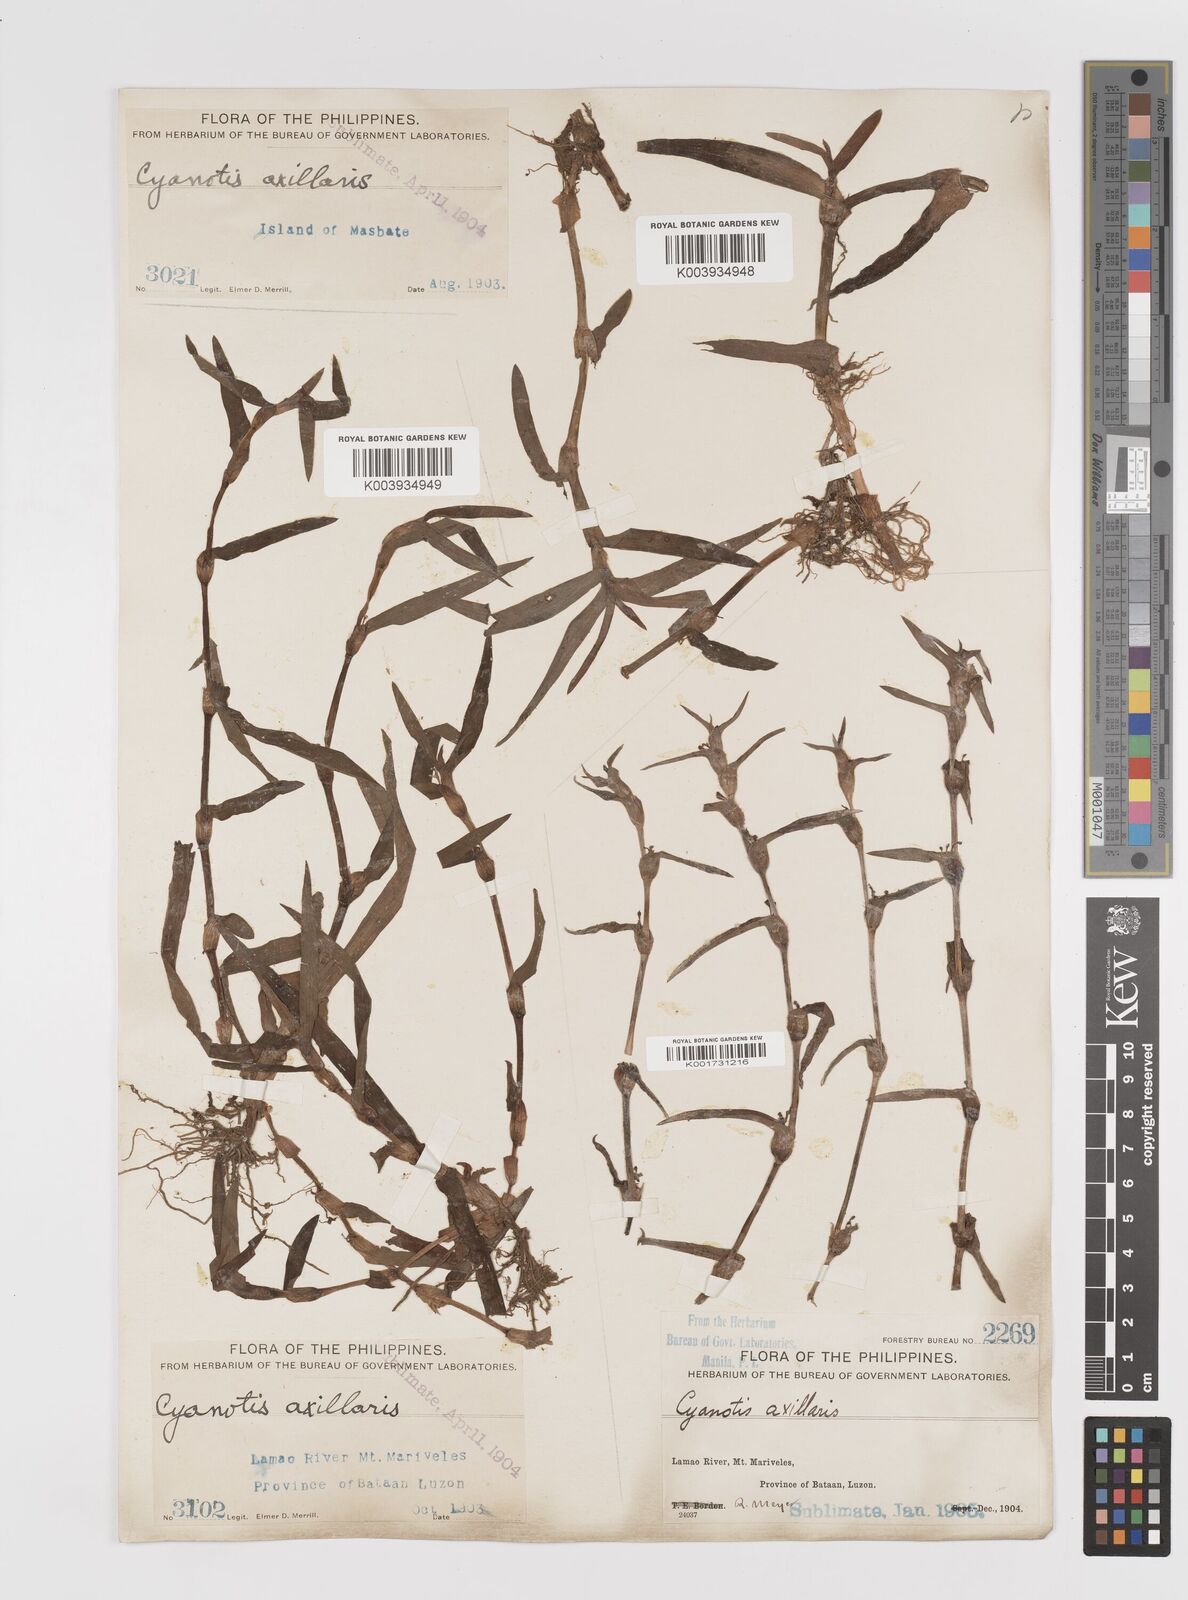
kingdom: Plantae
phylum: Tracheophyta
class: Liliopsida
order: Commelinales
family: Commelinaceae
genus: Cyanotis
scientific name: Cyanotis axillaris
